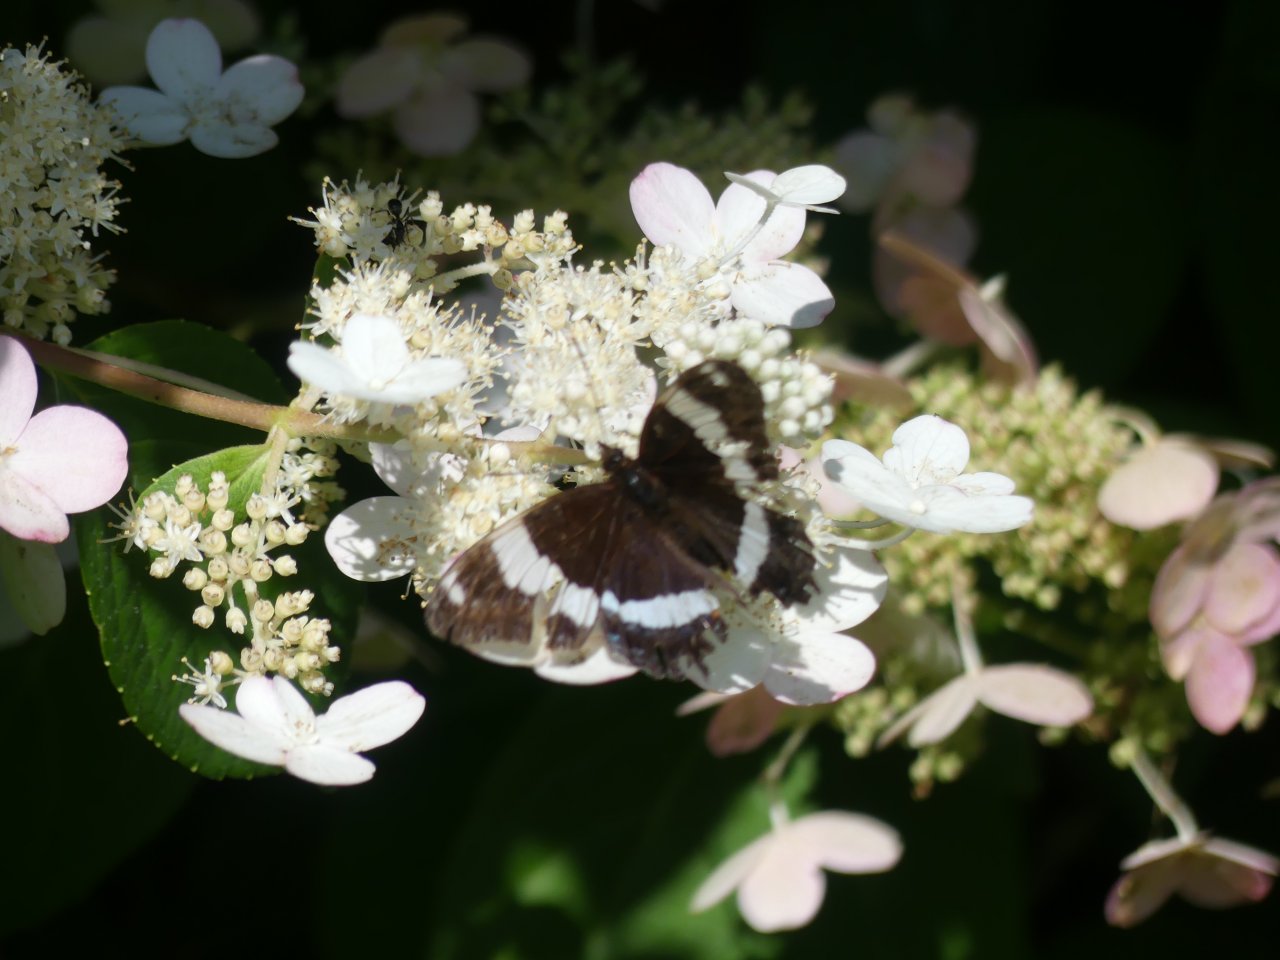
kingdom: Animalia
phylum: Arthropoda
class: Insecta
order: Lepidoptera
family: Nymphalidae
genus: Limenitis
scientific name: Limenitis arthemis
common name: Red-spotted Admiral
